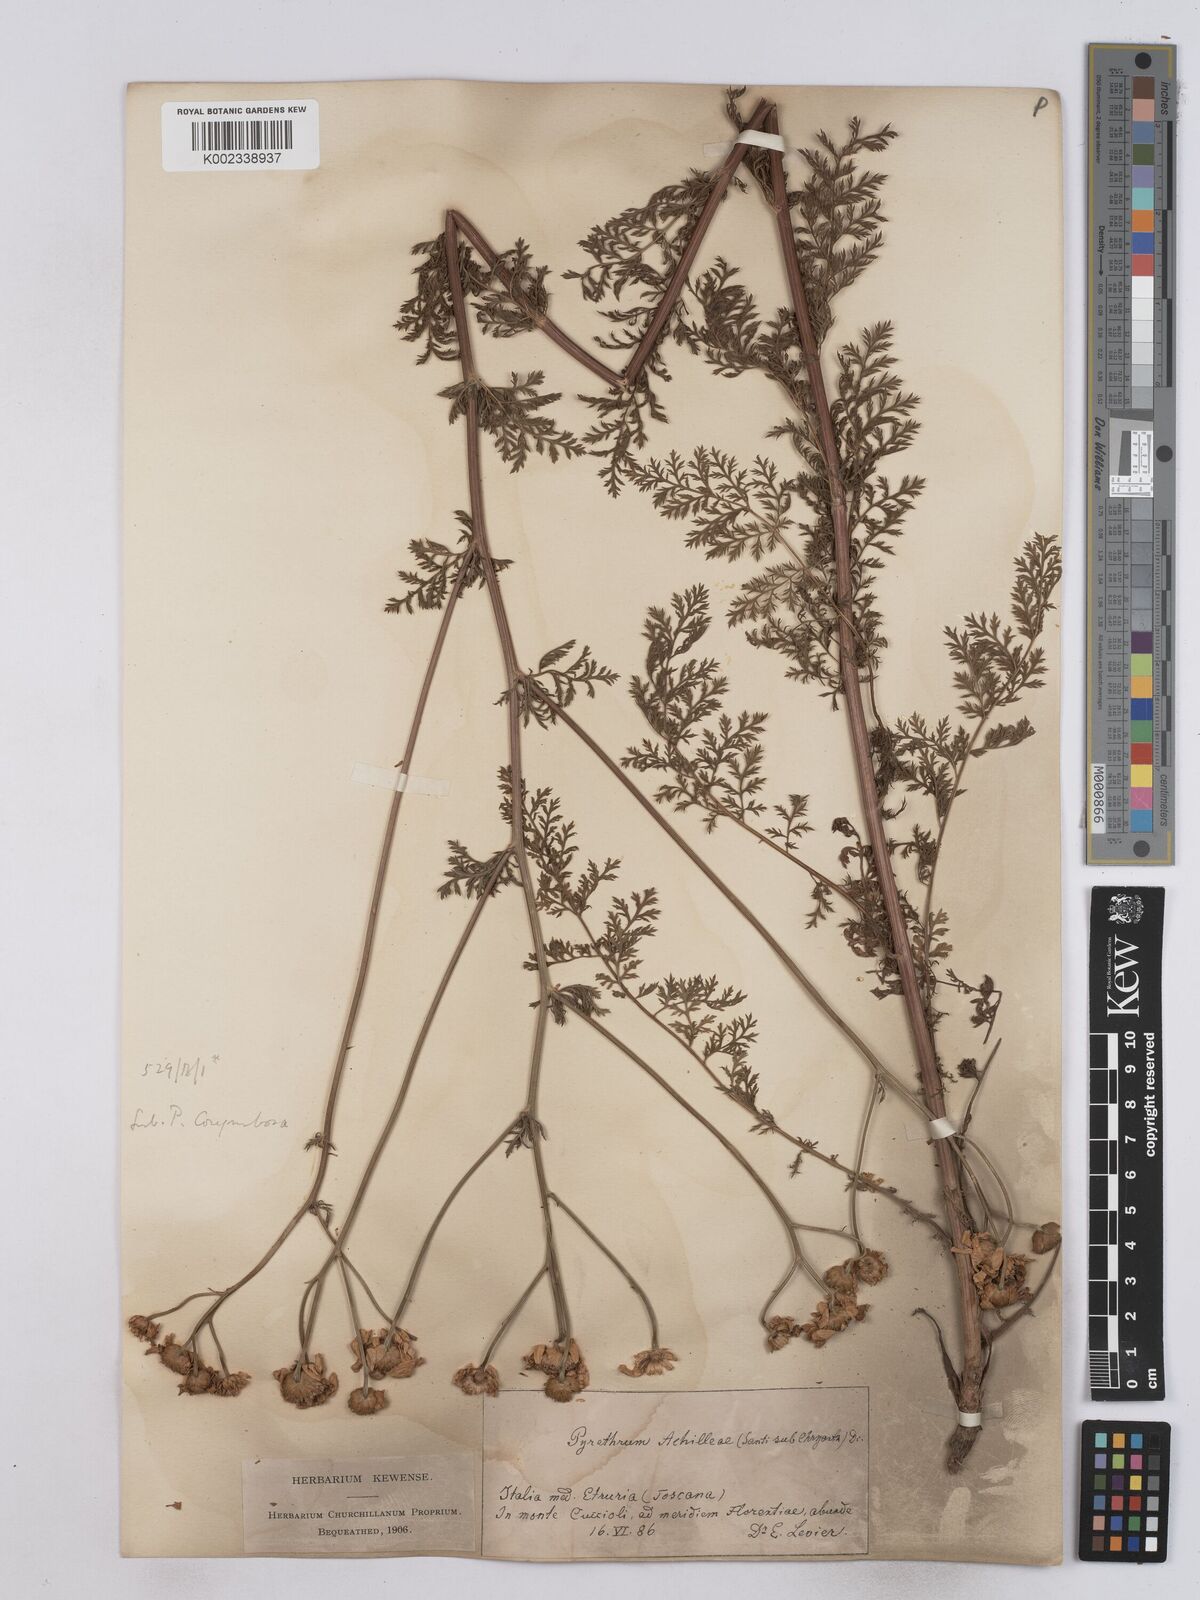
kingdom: Plantae
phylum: Tracheophyta
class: Magnoliopsida
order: Asterales
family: Asteraceae
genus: Tanacetum
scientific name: Tanacetum achilleae
